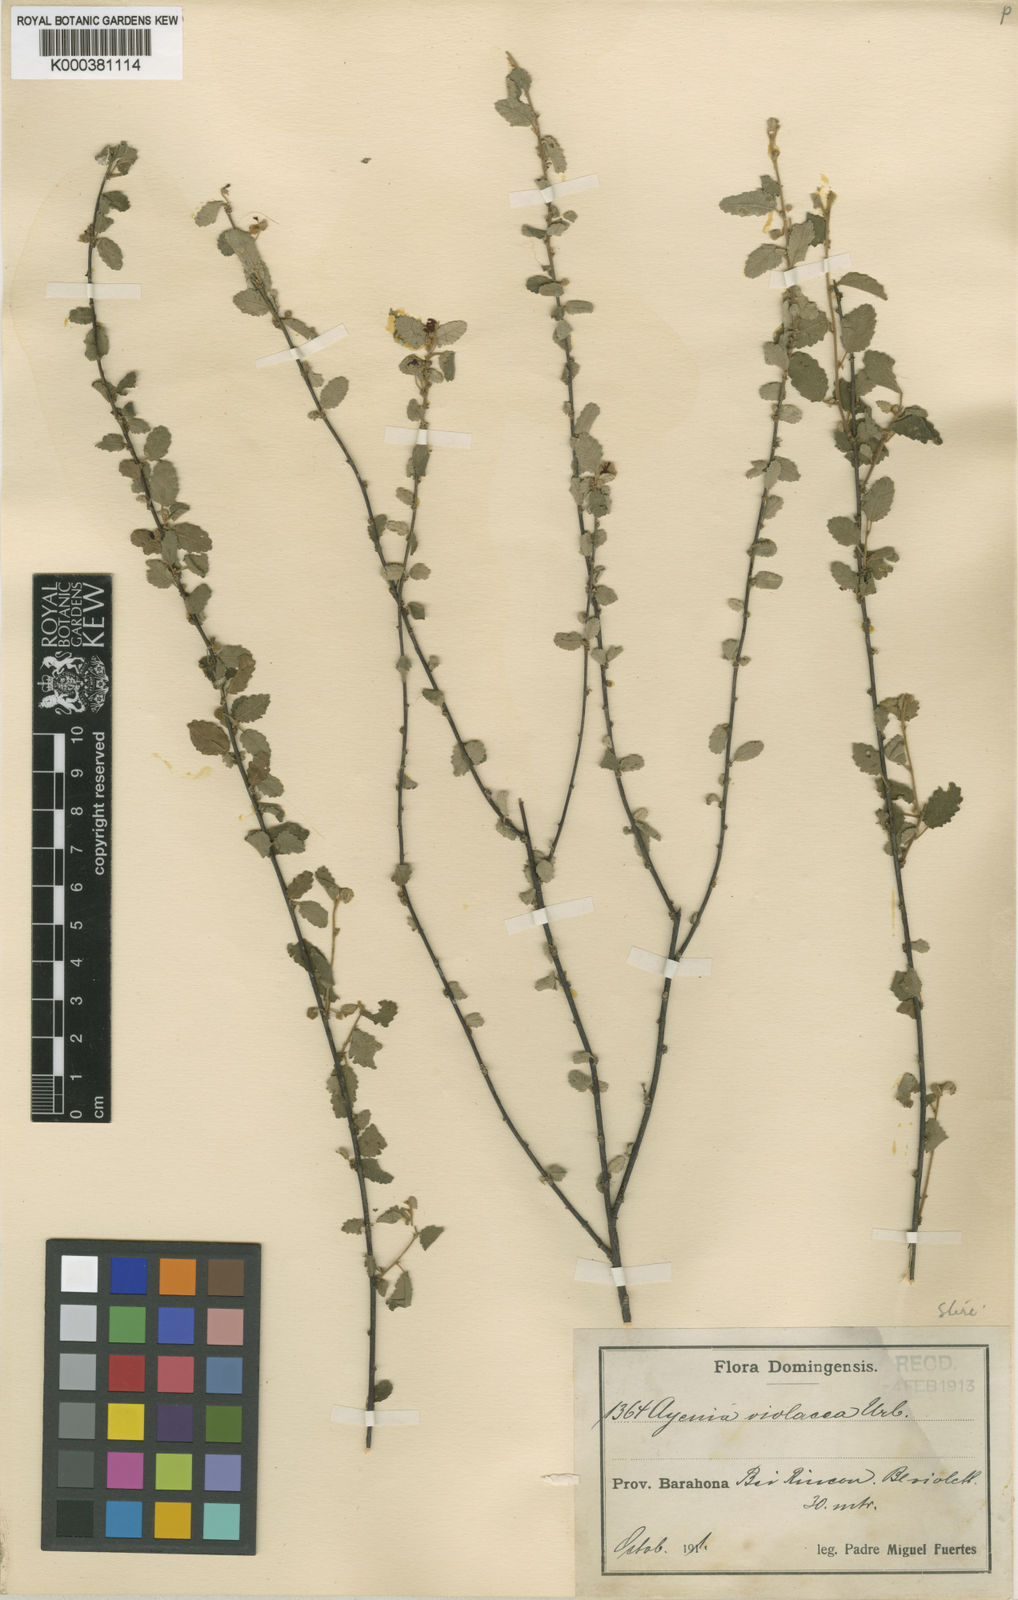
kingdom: Plantae
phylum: Tracheophyta
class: Magnoliopsida
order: Malvales
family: Malvaceae
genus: Ayenia
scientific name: Ayenia violacea
